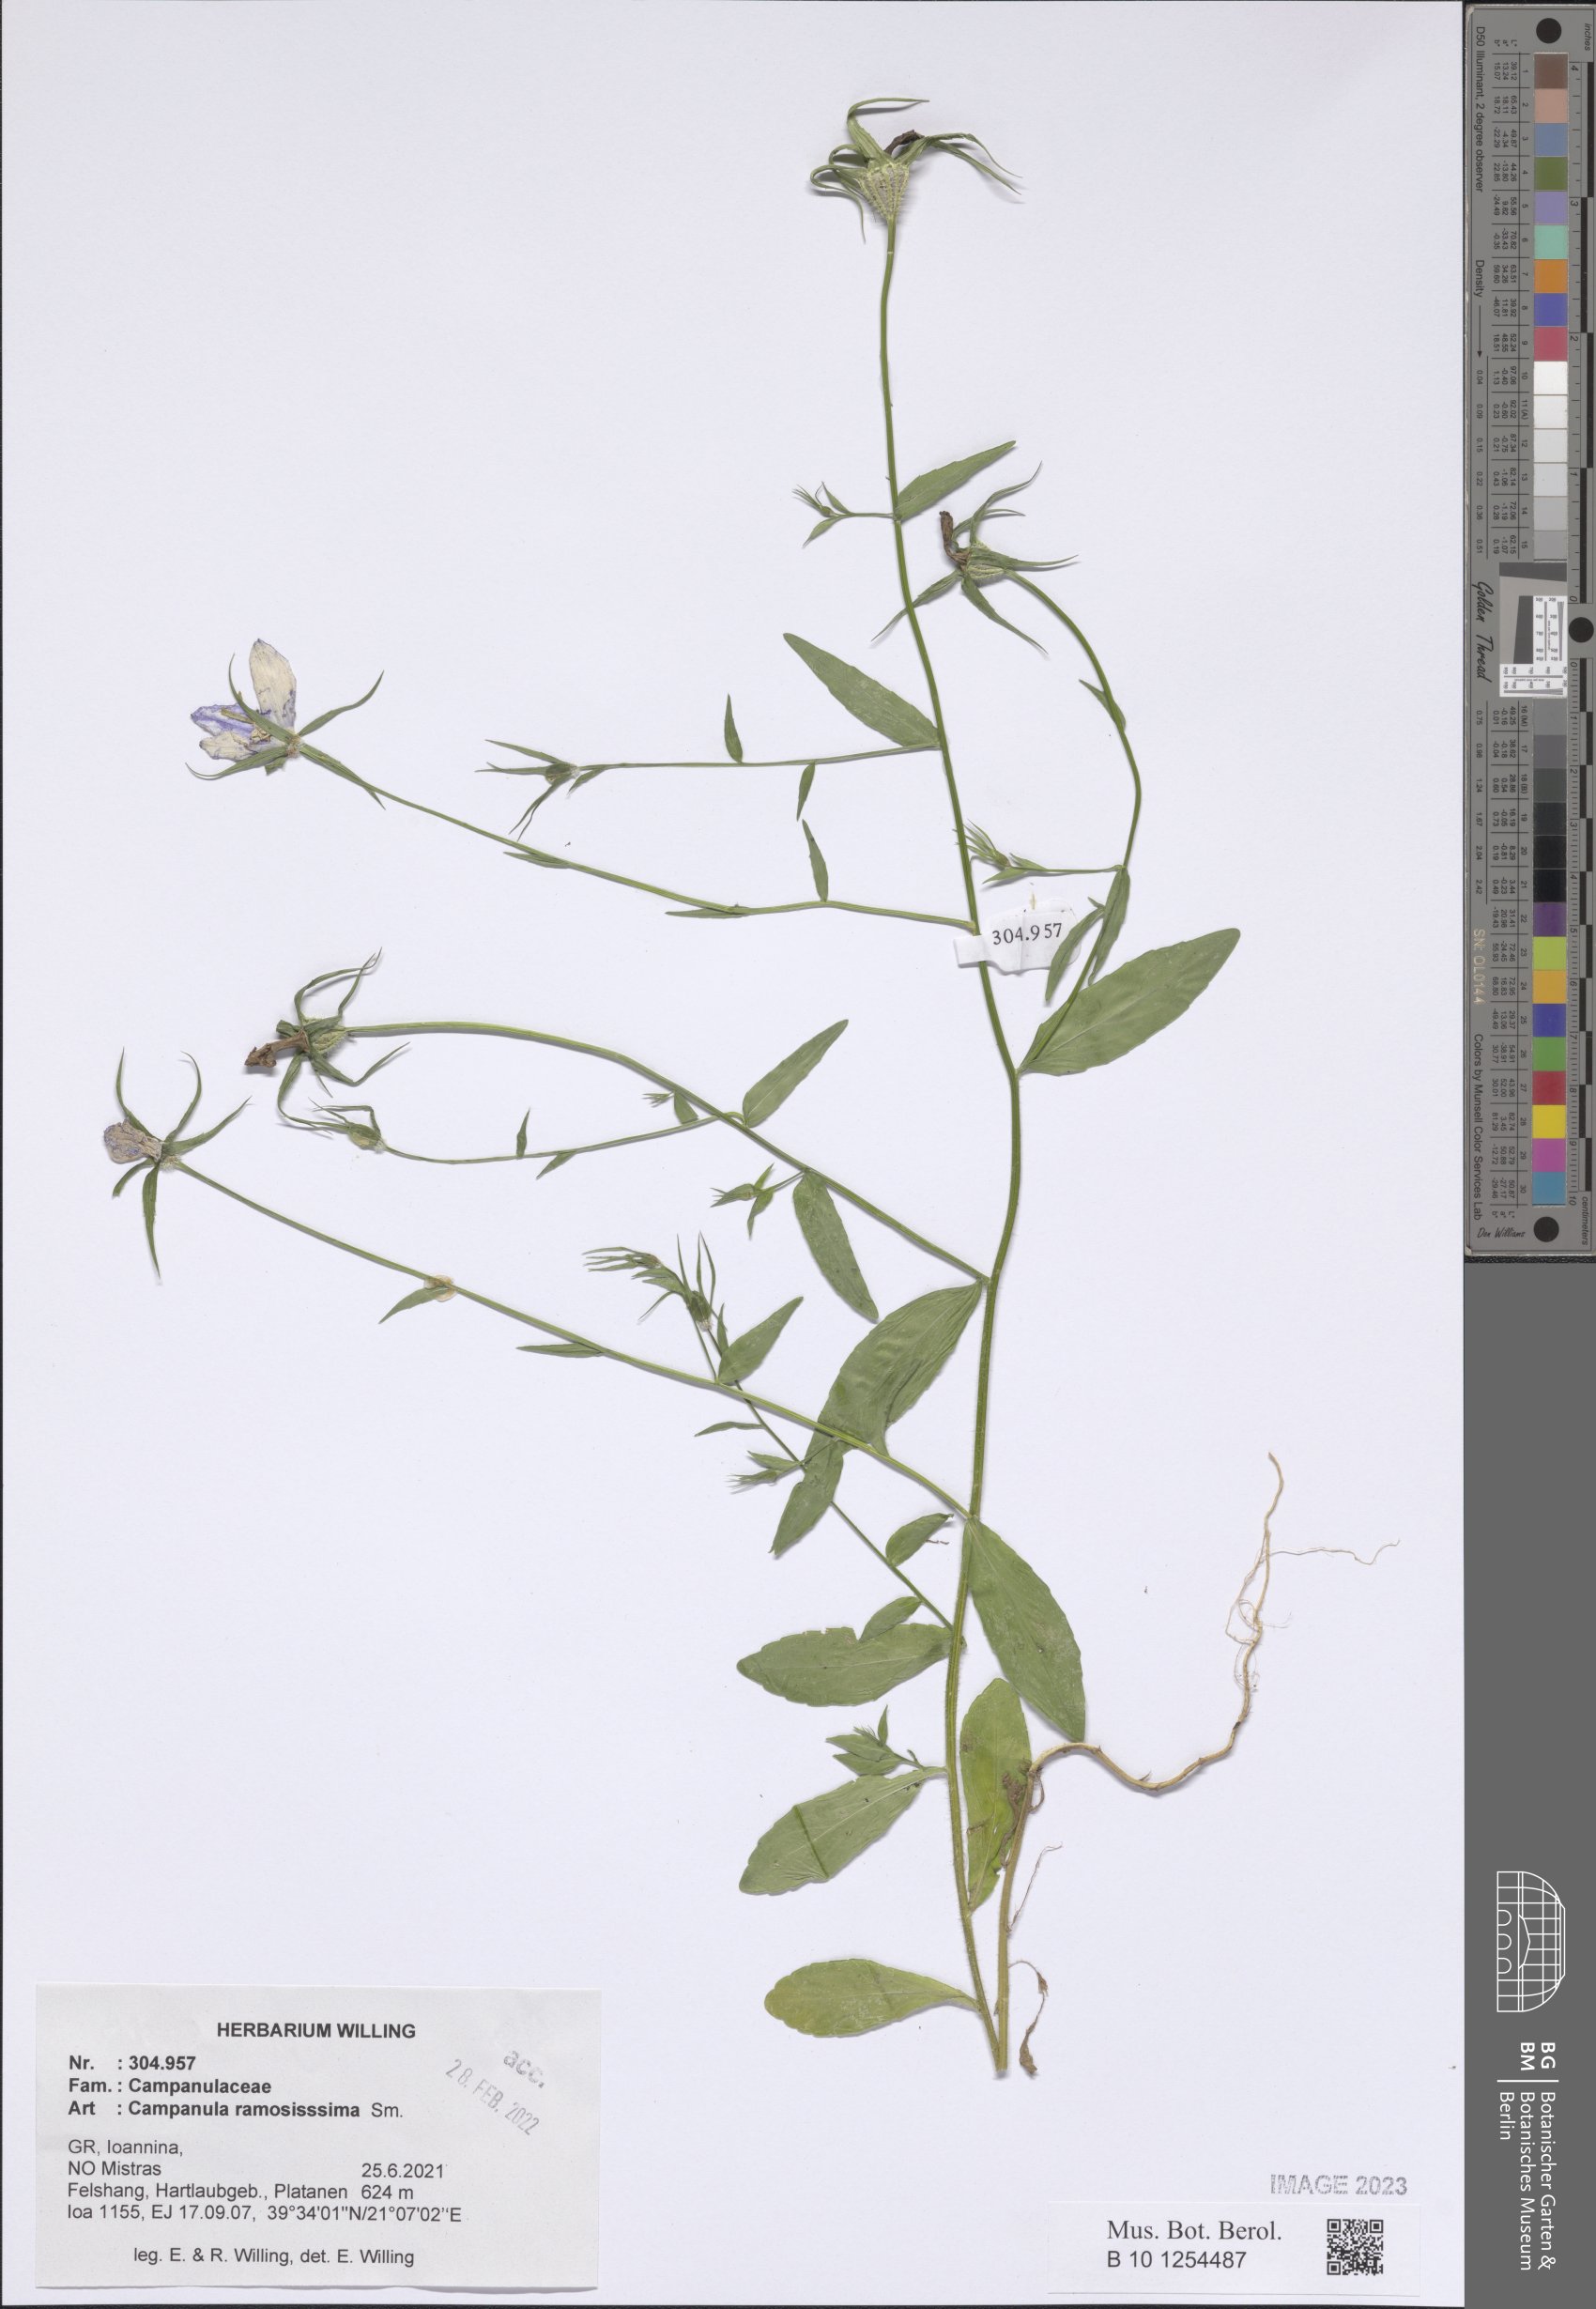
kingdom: Plantae
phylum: Tracheophyta
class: Magnoliopsida
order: Asterales
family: Campanulaceae
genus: Campanula
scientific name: Campanula ramosissima
